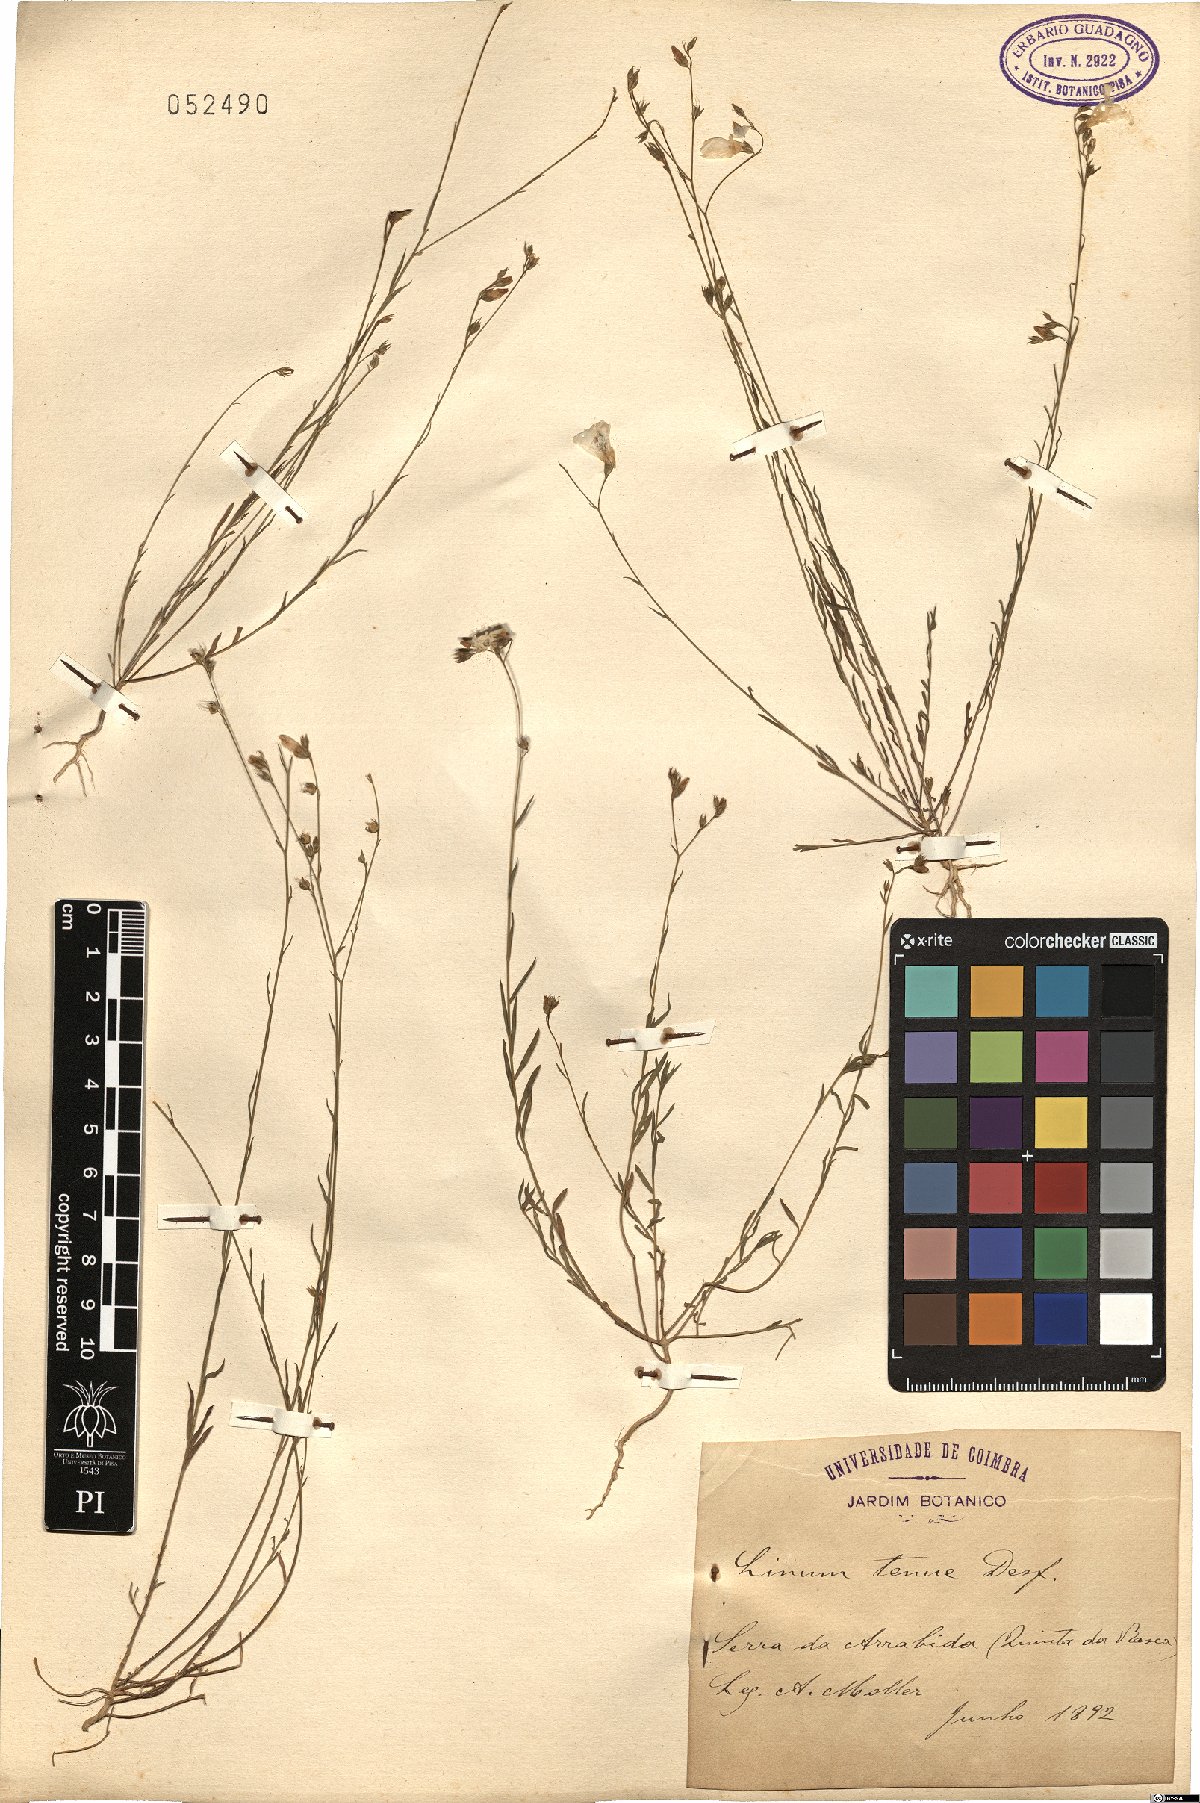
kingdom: Plantae
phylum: Tracheophyta
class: Magnoliopsida
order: Malpighiales
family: Linaceae
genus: Linum
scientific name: Linum tenue
